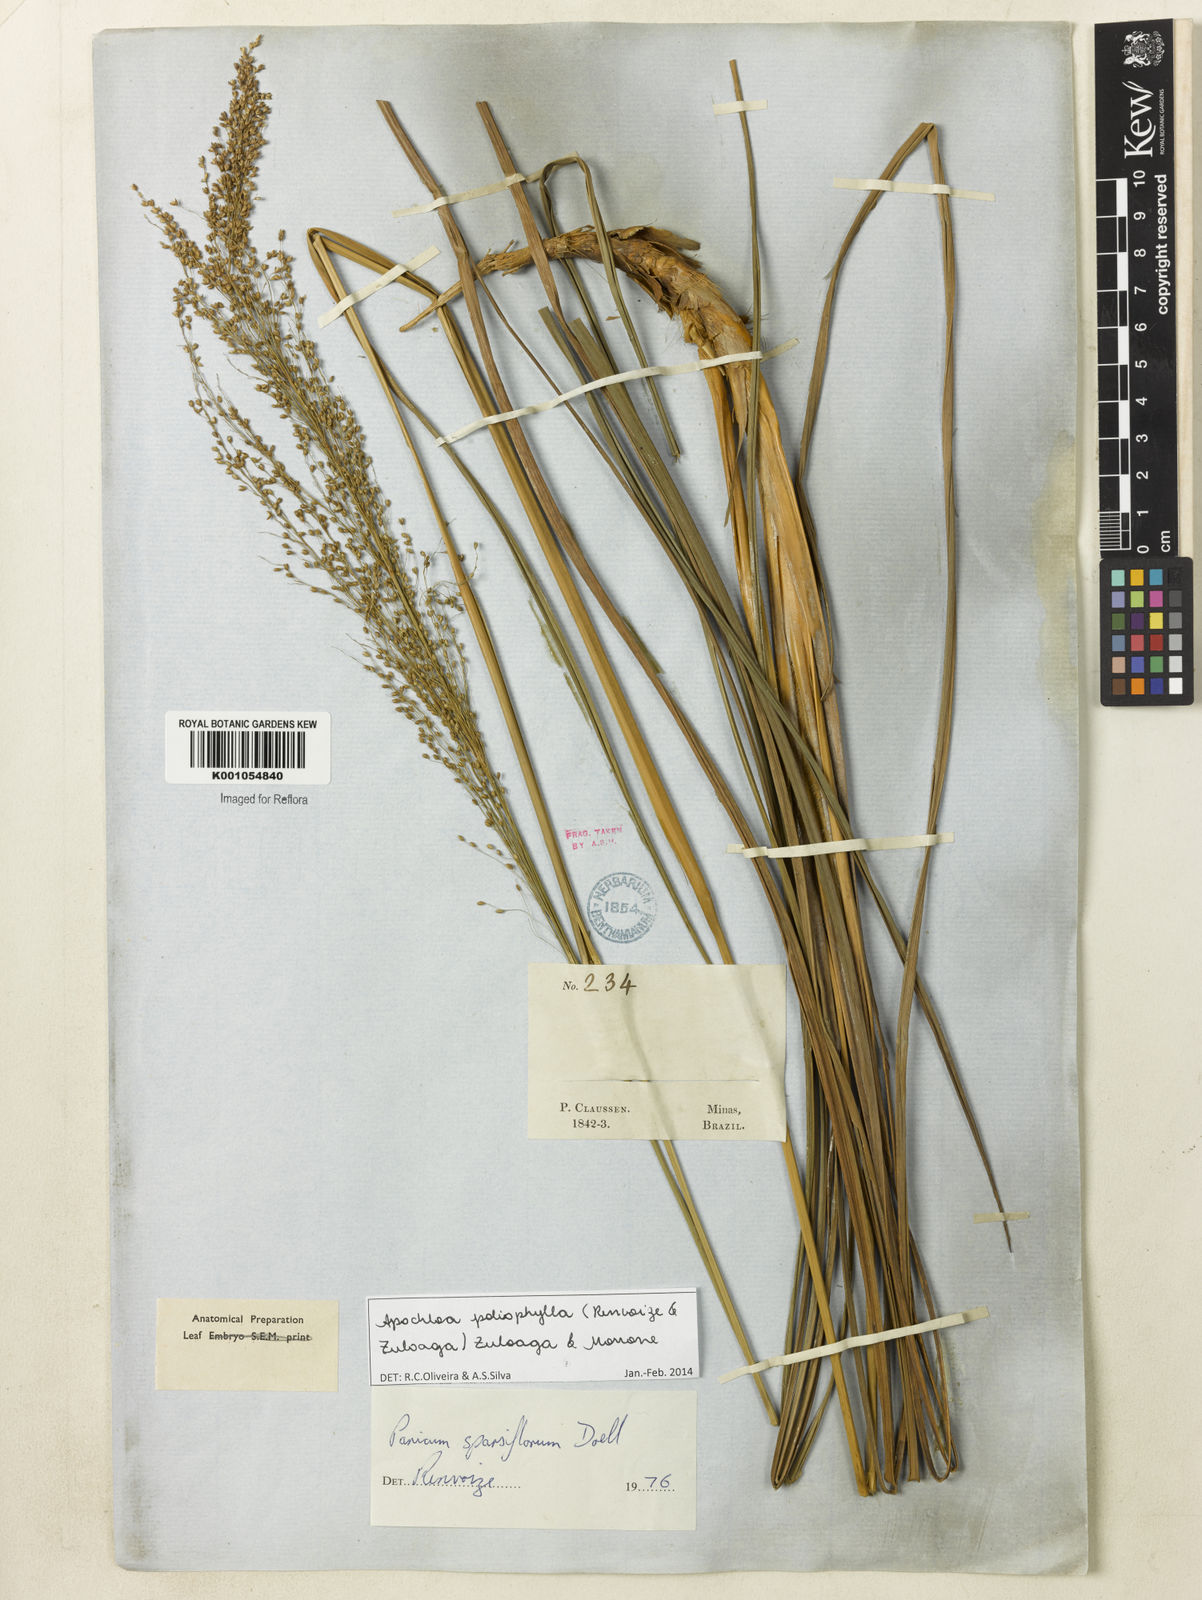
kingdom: Plantae
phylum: Tracheophyta
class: Liliopsida
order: Poales
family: Poaceae
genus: Apochloa
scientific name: Apochloa poliophylla
